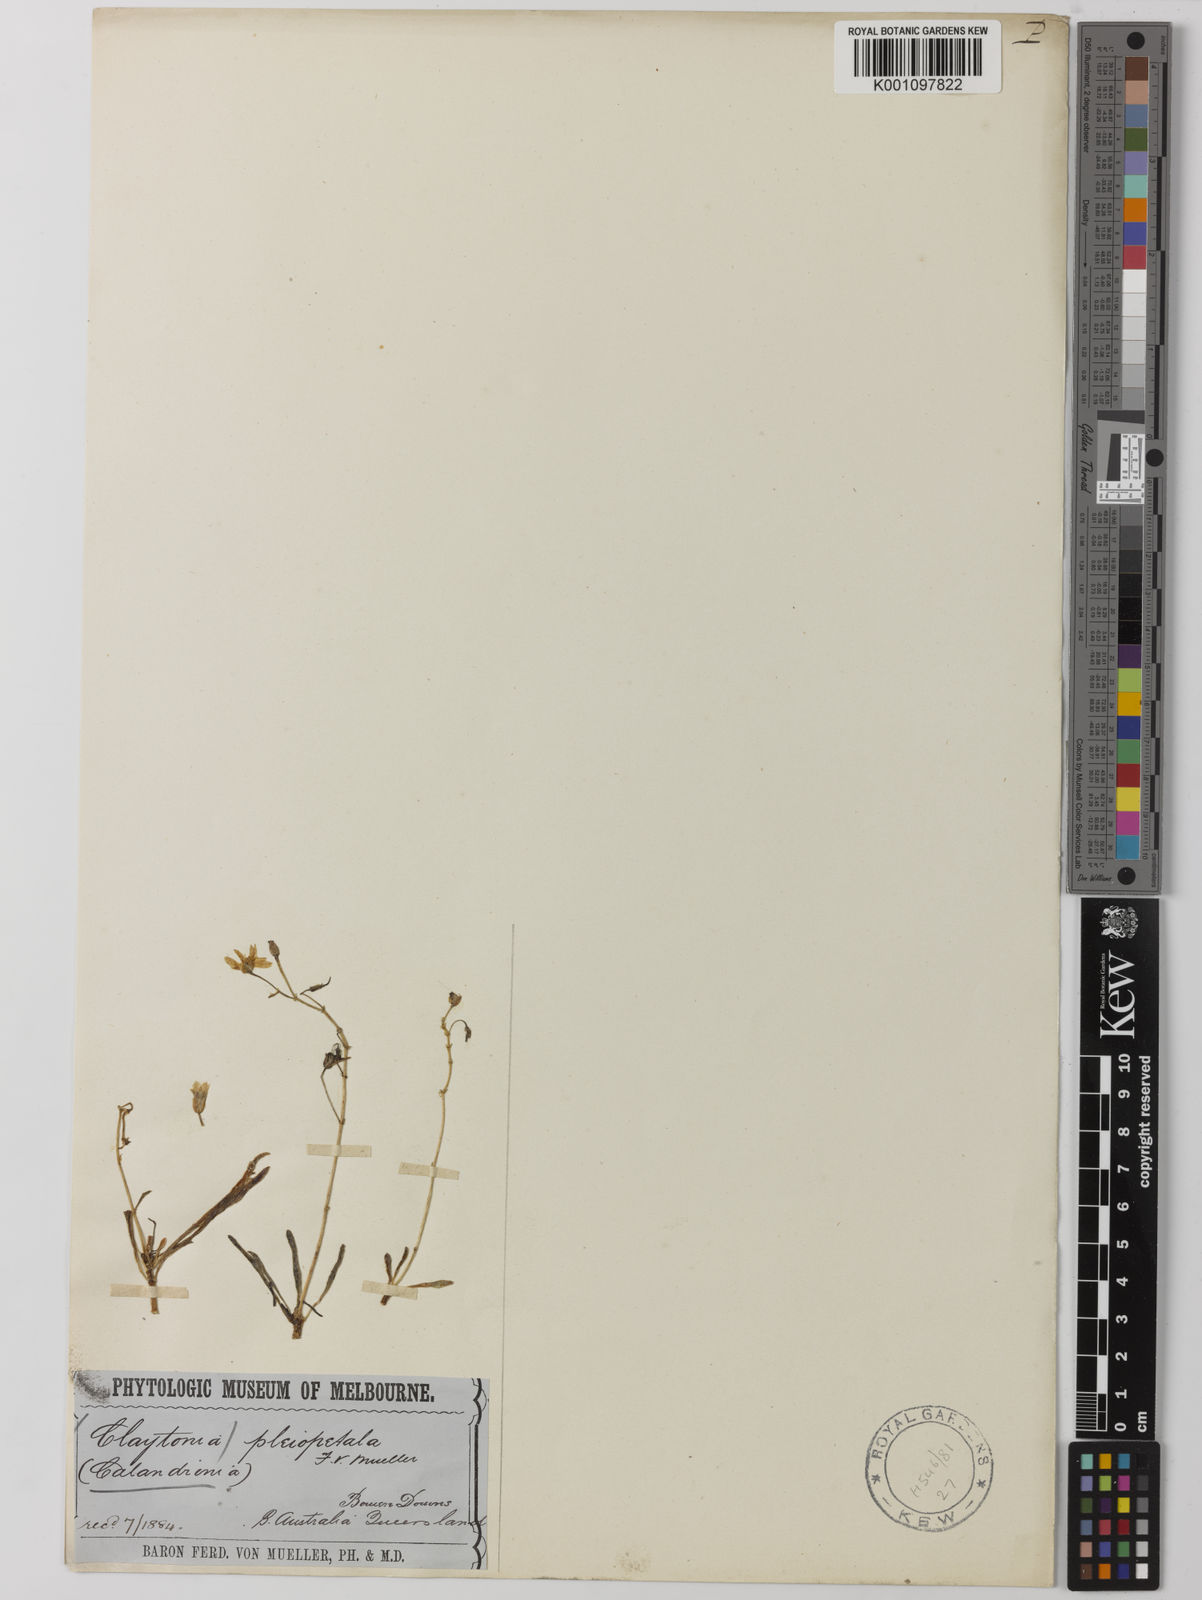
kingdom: Plantae
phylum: Tracheophyta
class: Magnoliopsida
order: Caryophyllales
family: Montiaceae
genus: Rumicastrum
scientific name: Rumicastrum pleiopetalum
